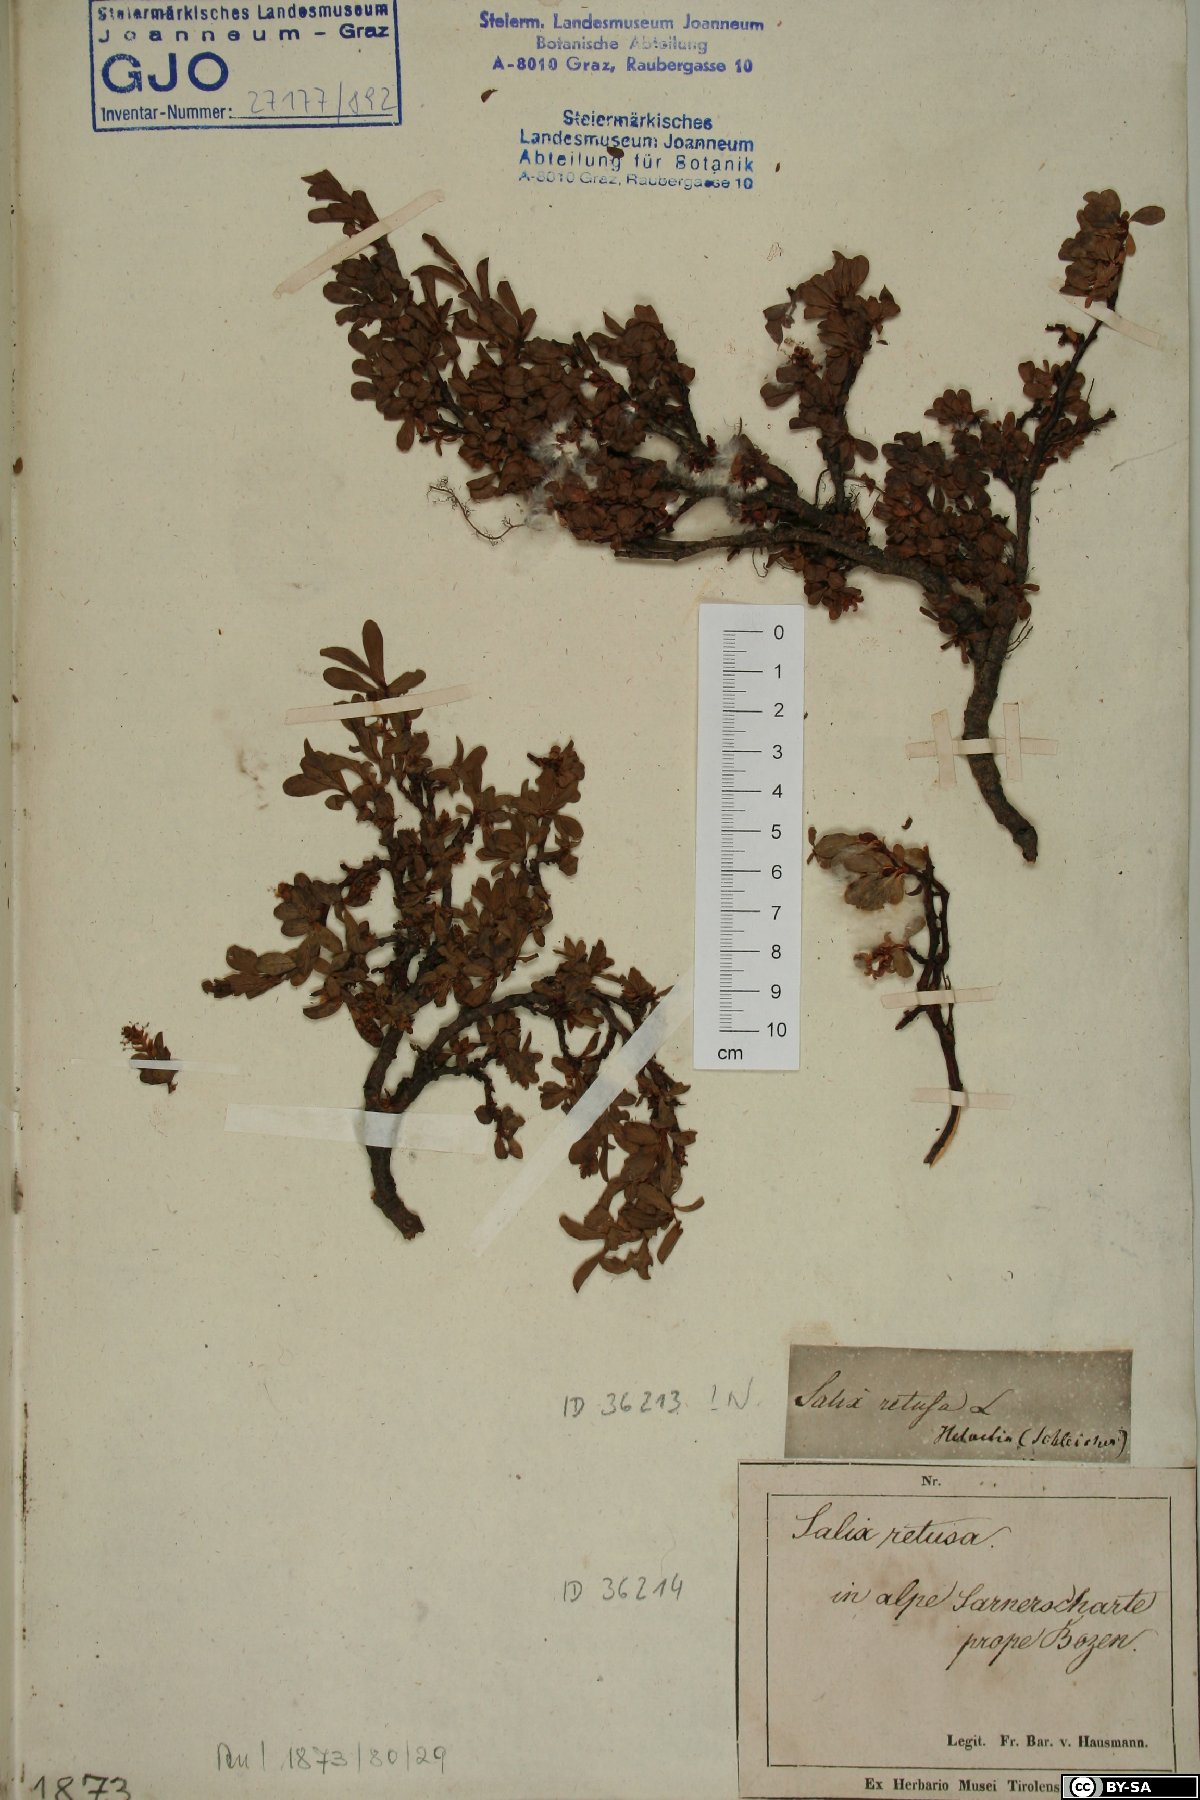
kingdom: Plantae
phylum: Tracheophyta
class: Magnoliopsida
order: Malpighiales
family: Salicaceae
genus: Salix
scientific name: Salix retusa
